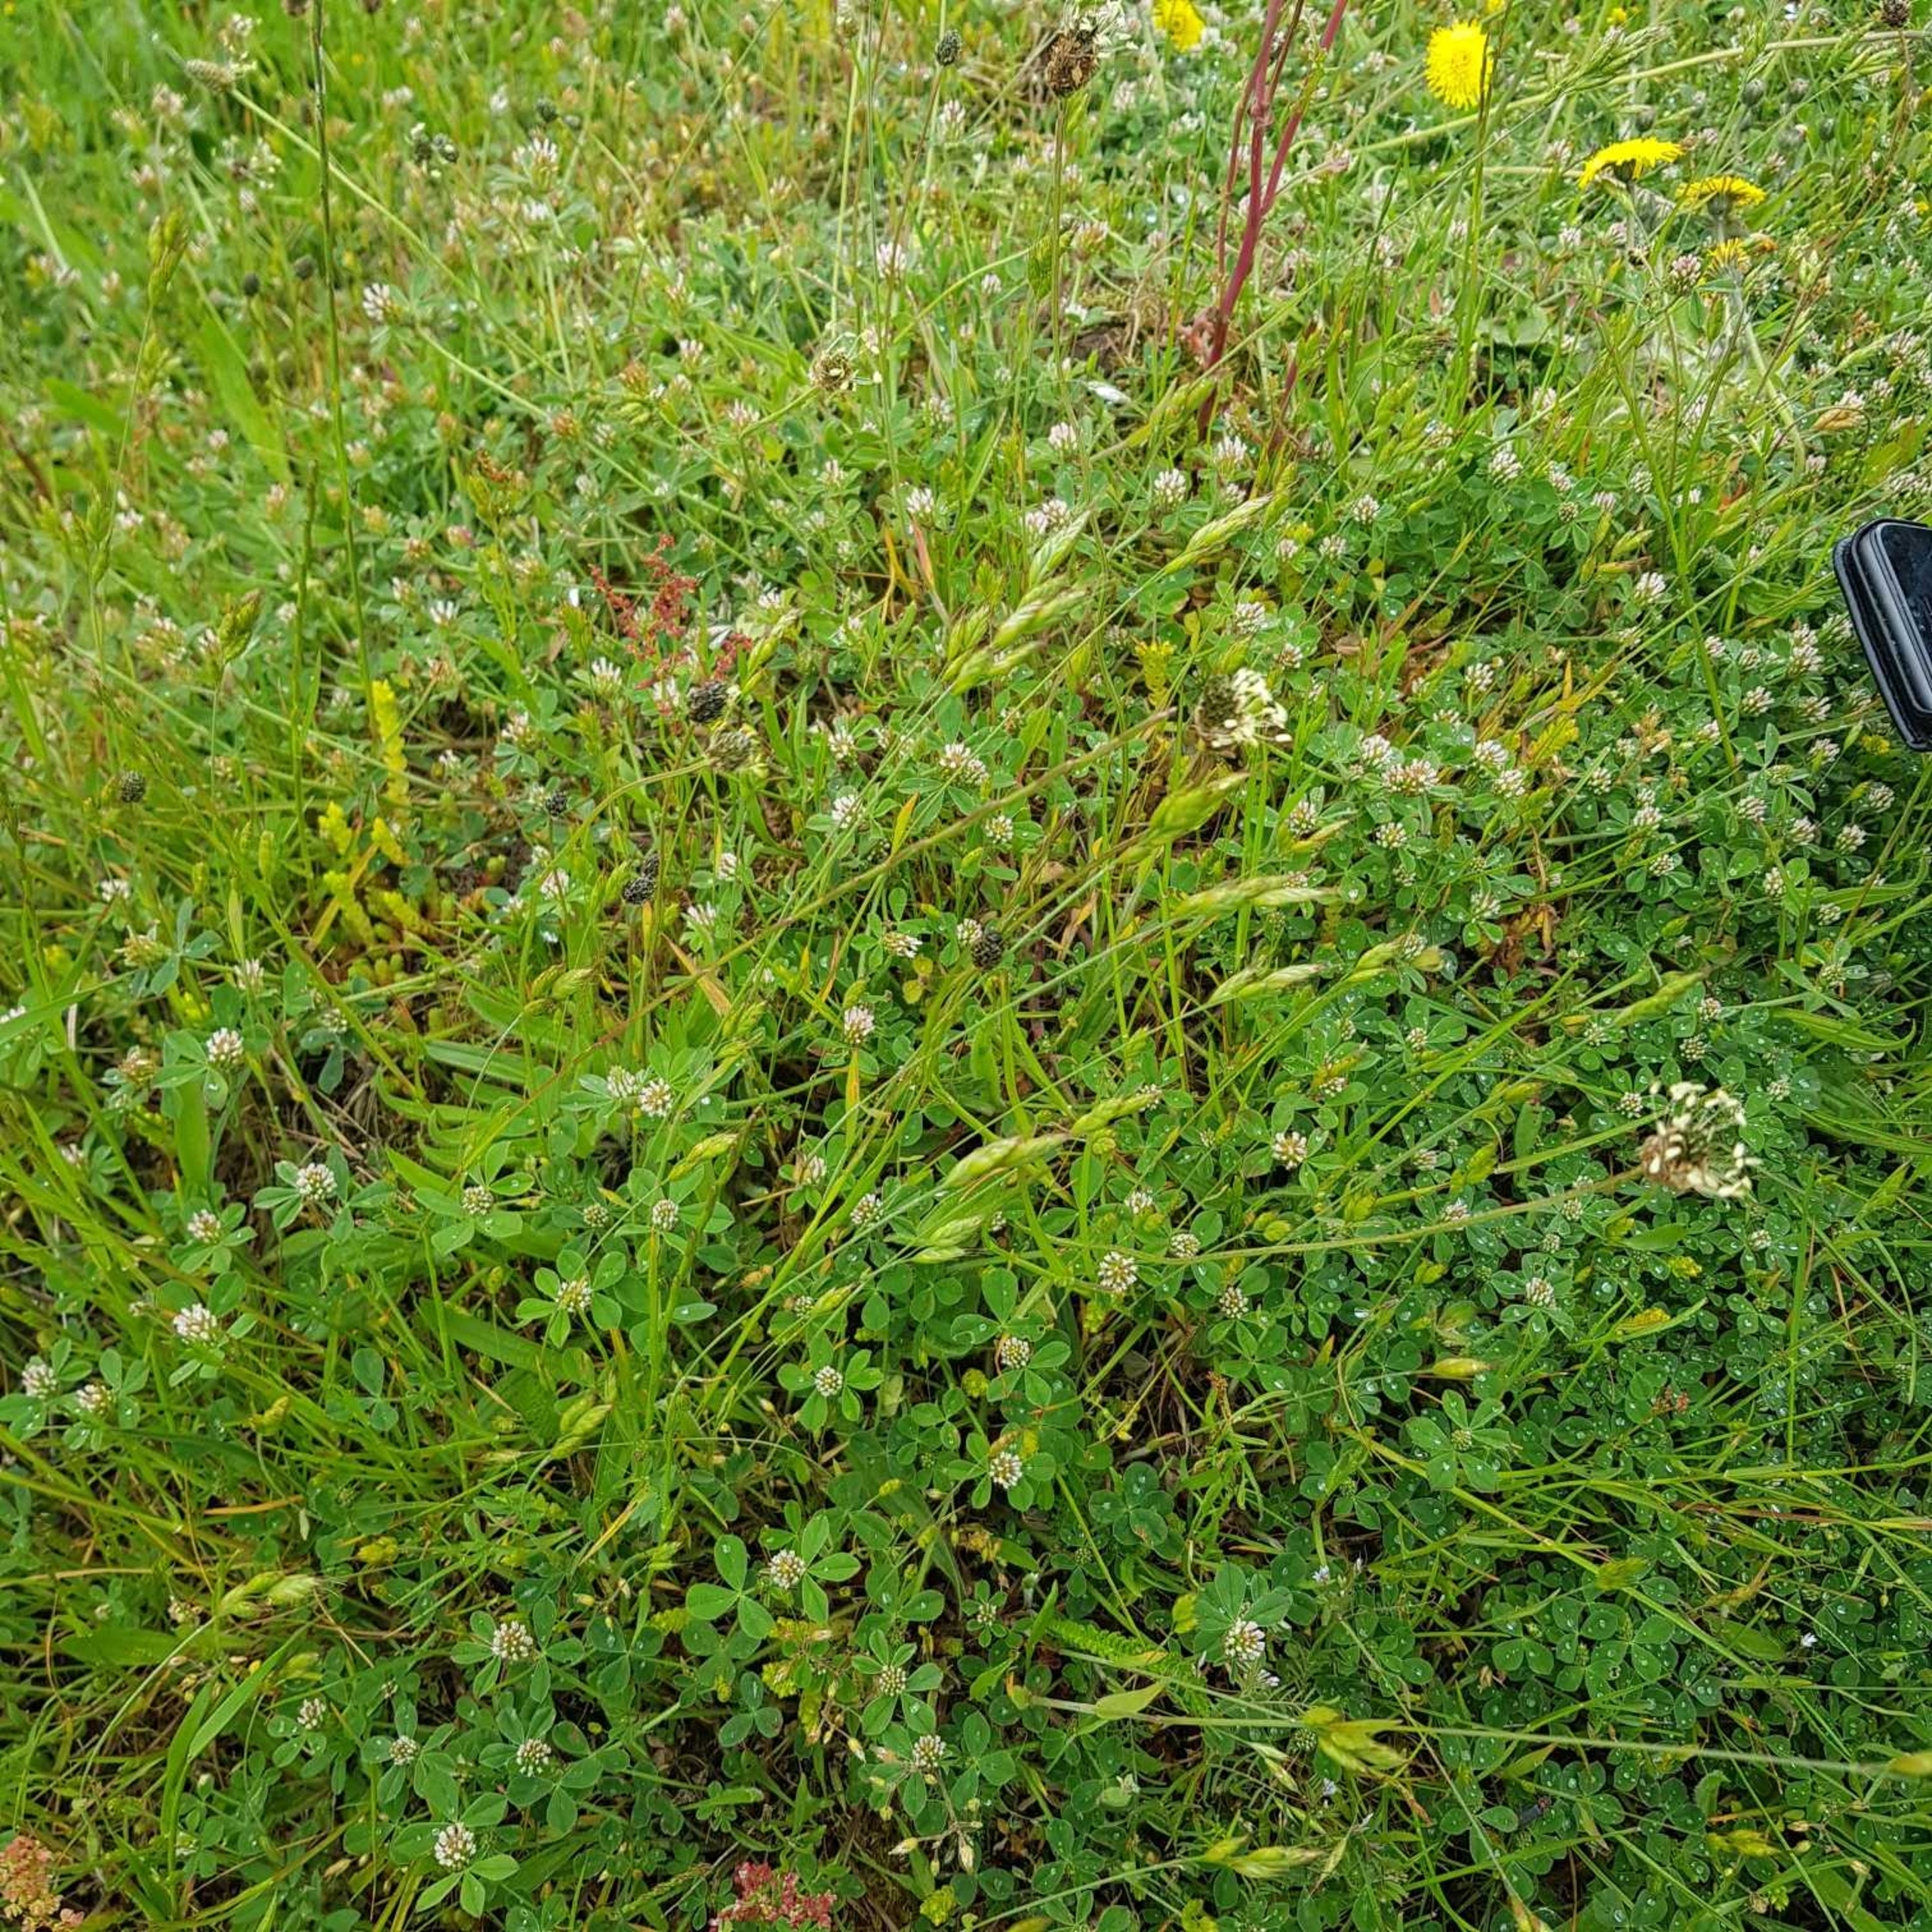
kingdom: Plantae
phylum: Tracheophyta
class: Magnoliopsida
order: Fabales
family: Fabaceae
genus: Trifolium
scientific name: Trifolium striatum
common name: Stribet kløver
